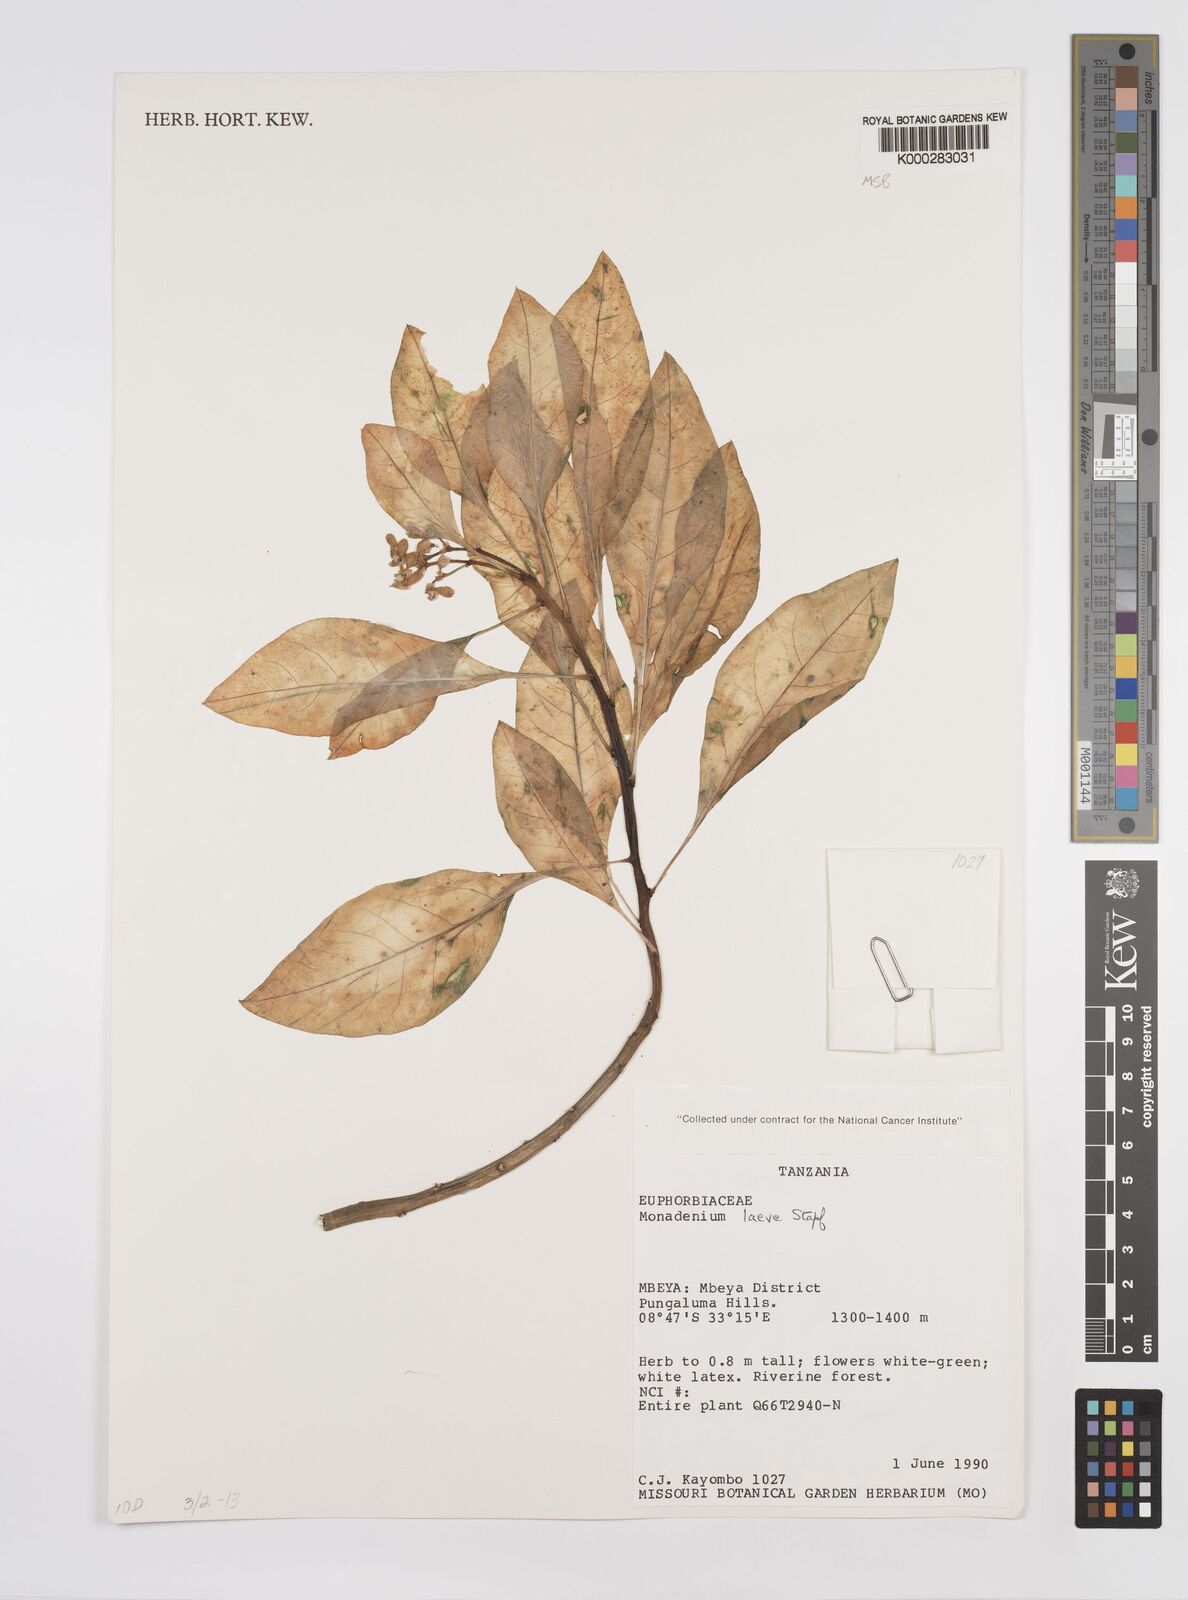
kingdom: Plantae
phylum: Tracheophyta
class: Magnoliopsida
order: Malpighiales
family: Euphorbiaceae
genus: Euphorbia
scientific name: Euphorbia pseudolaevis
